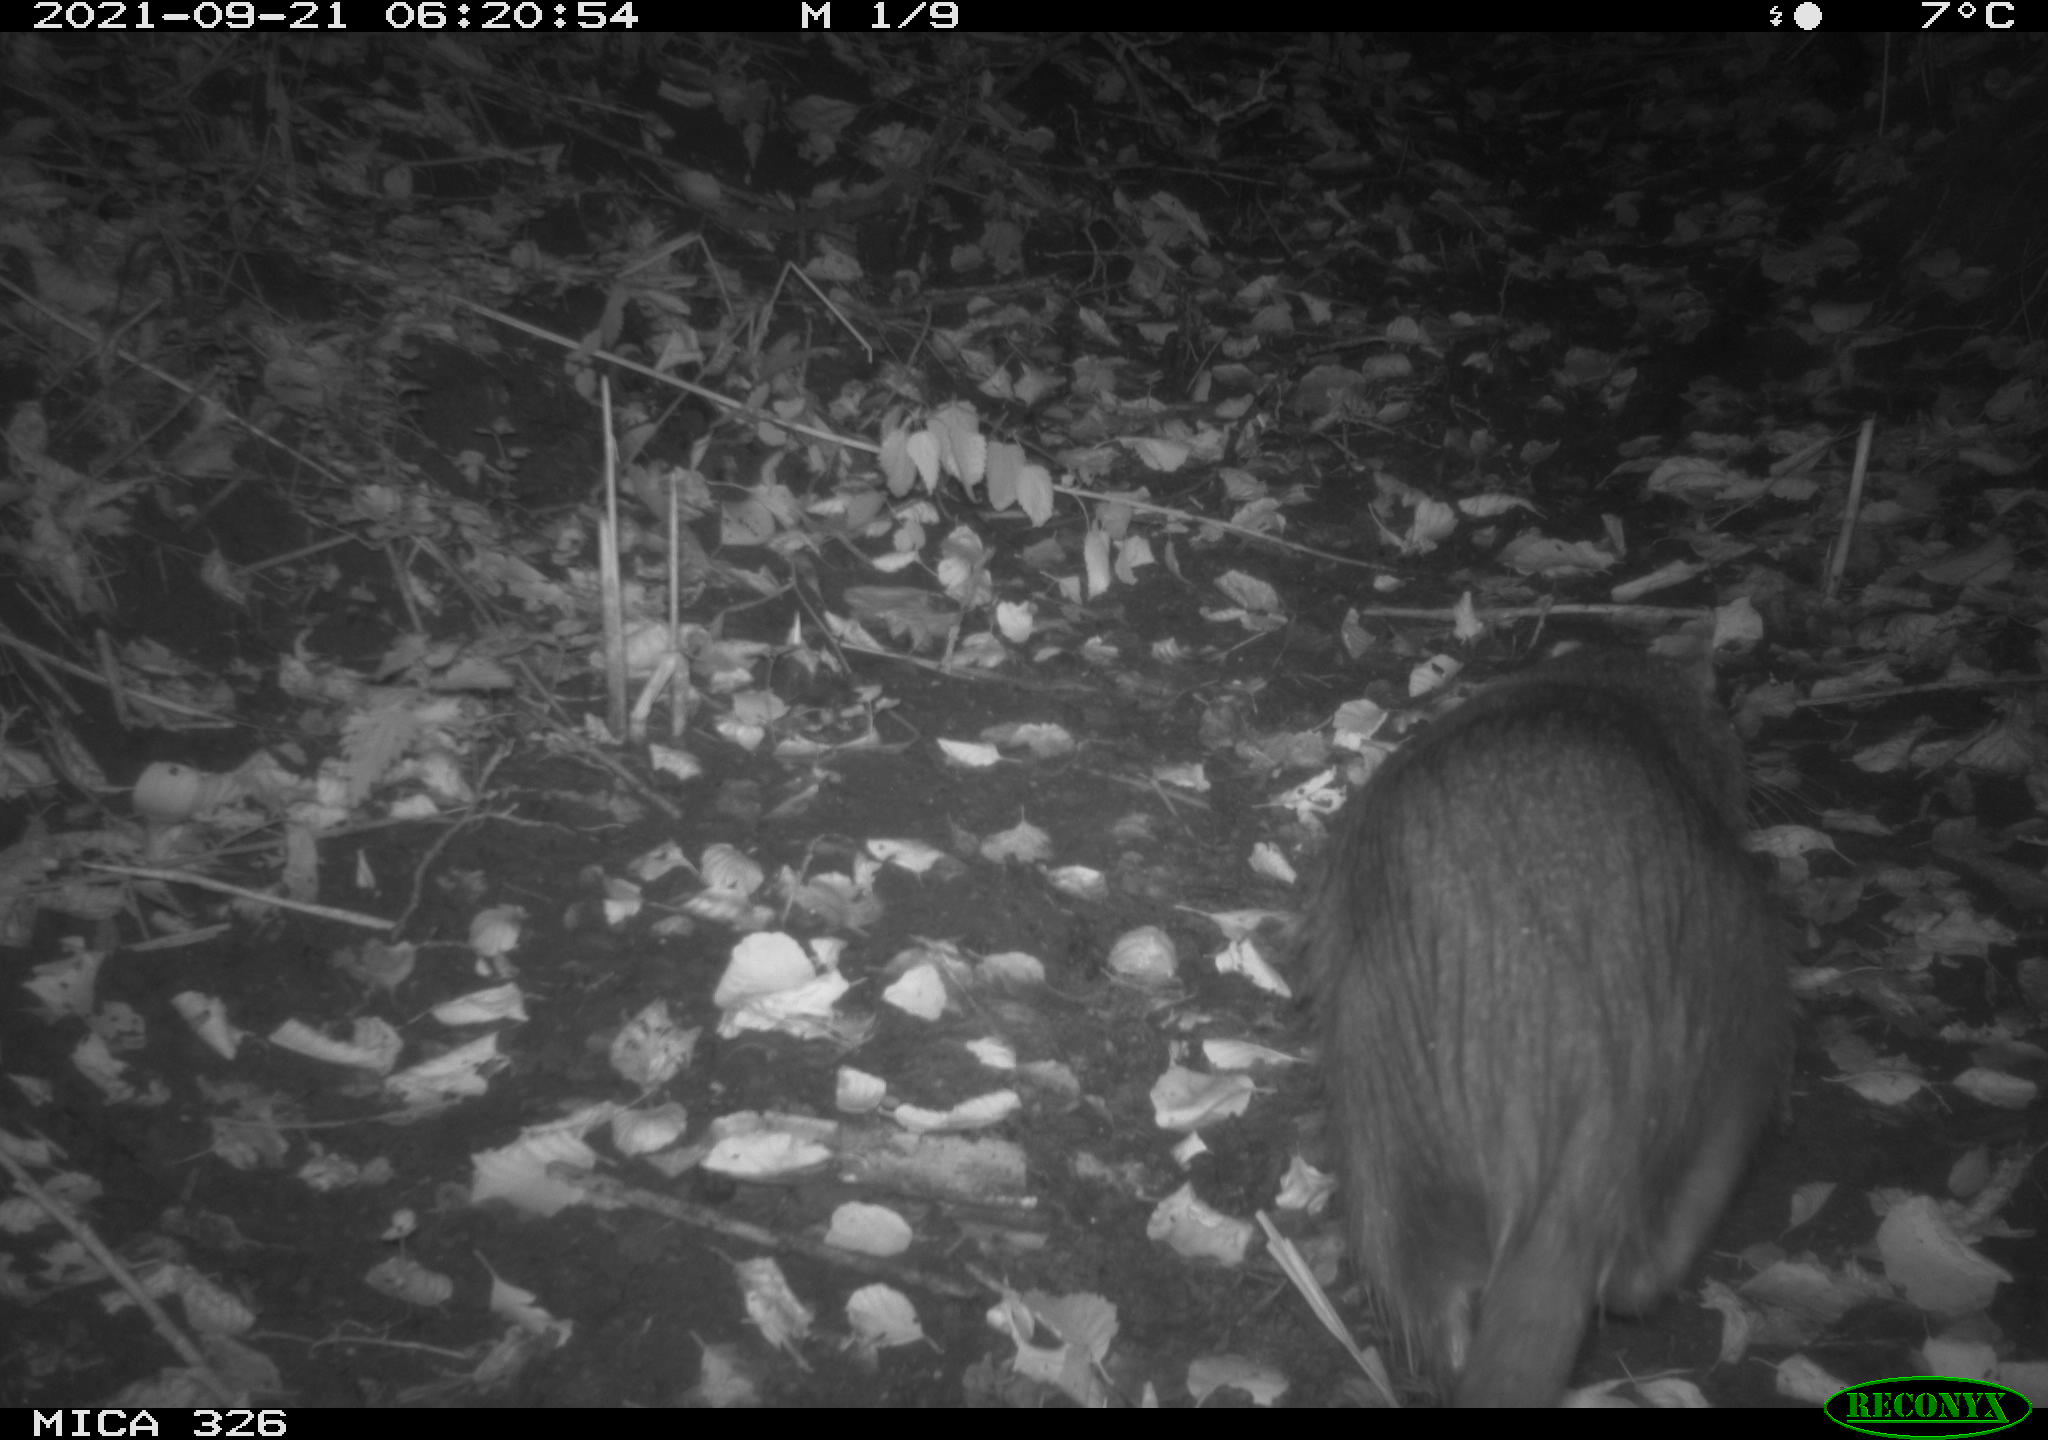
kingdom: Animalia
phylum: Chordata
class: Mammalia
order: Rodentia
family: Myocastoridae
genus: Myocastor
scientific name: Myocastor coypus
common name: Coypu
